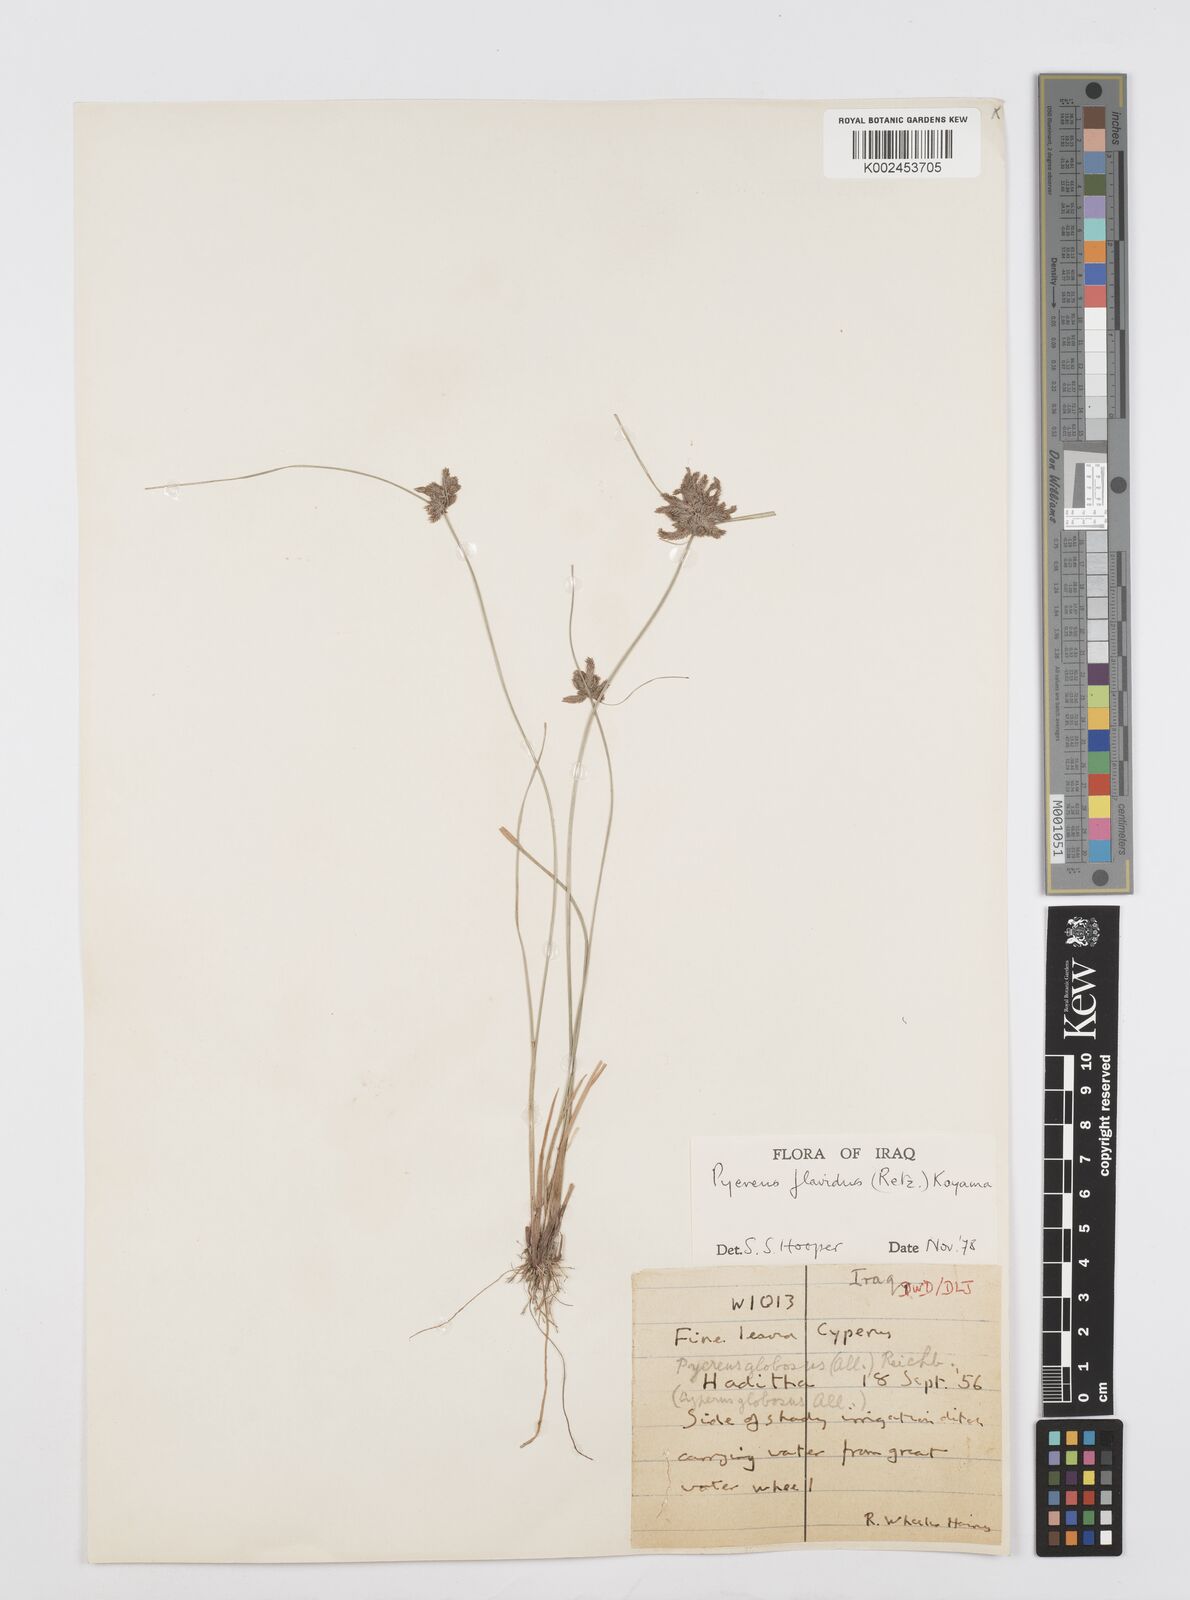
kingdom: Plantae
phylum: Tracheophyta
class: Liliopsida
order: Poales
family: Cyperaceae
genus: Cyperus
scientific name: Cyperus flavidus
